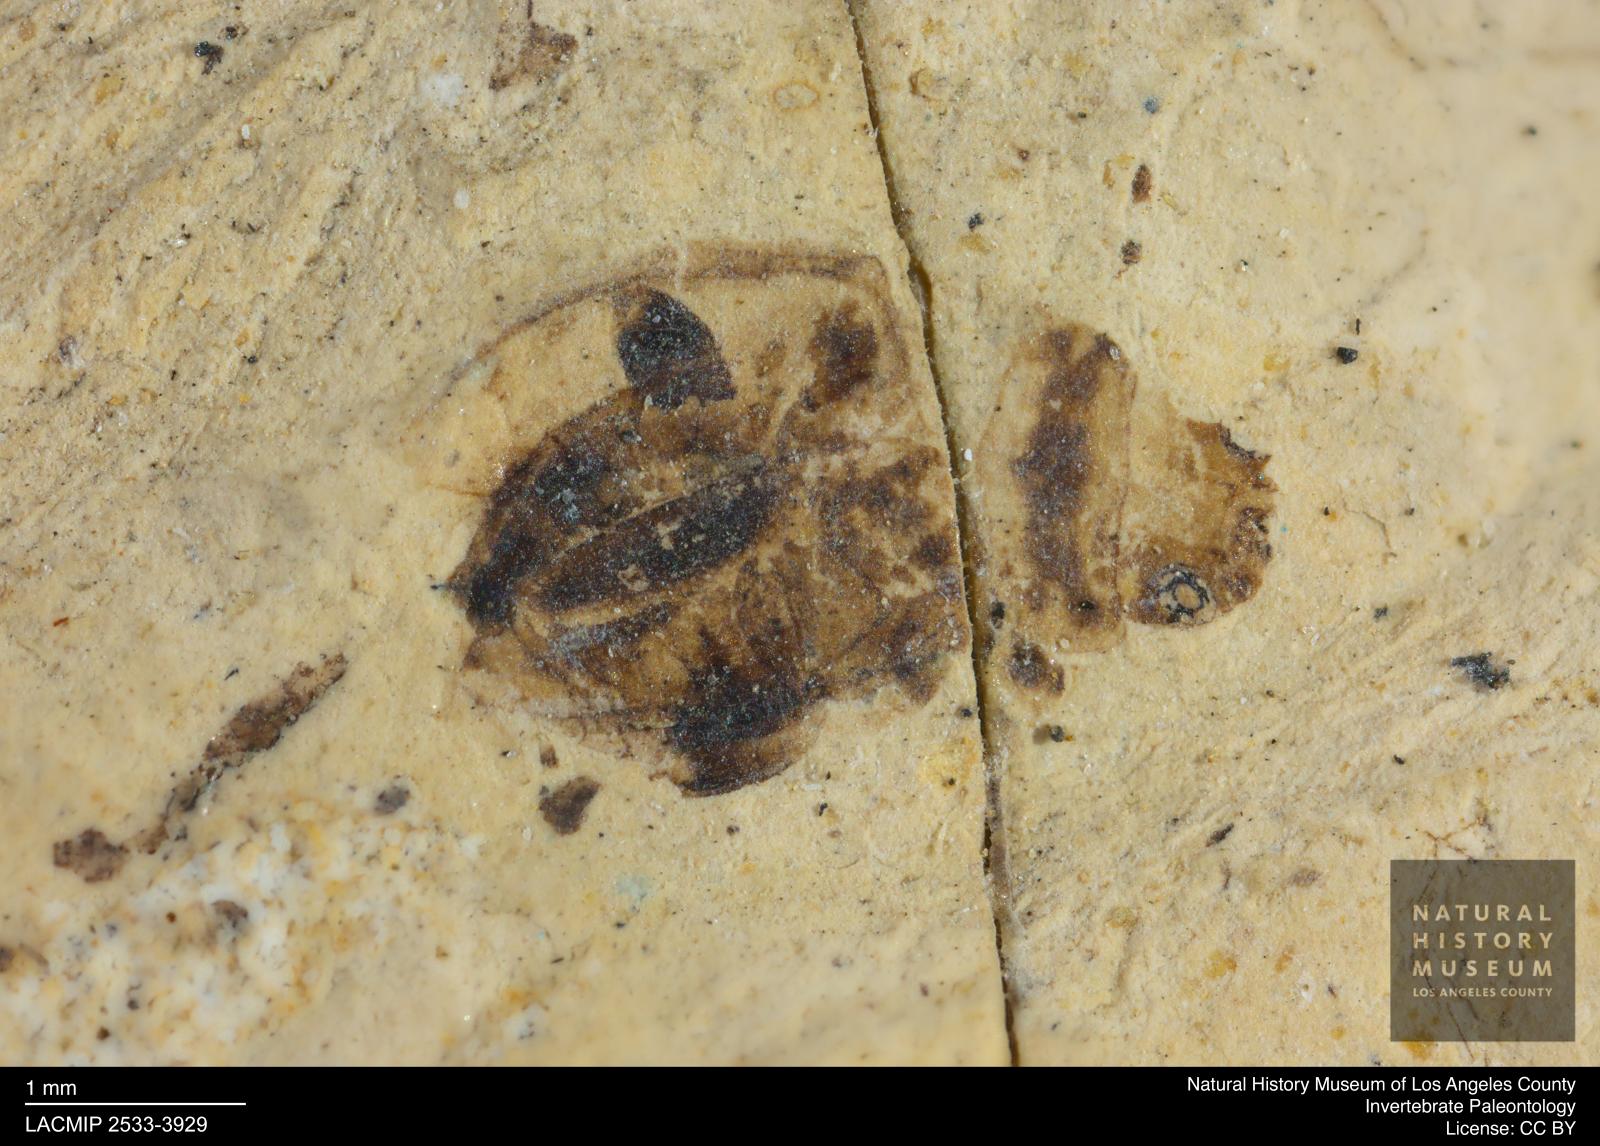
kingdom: Animalia
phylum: Arthropoda
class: Insecta
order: Diptera
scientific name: Diptera
